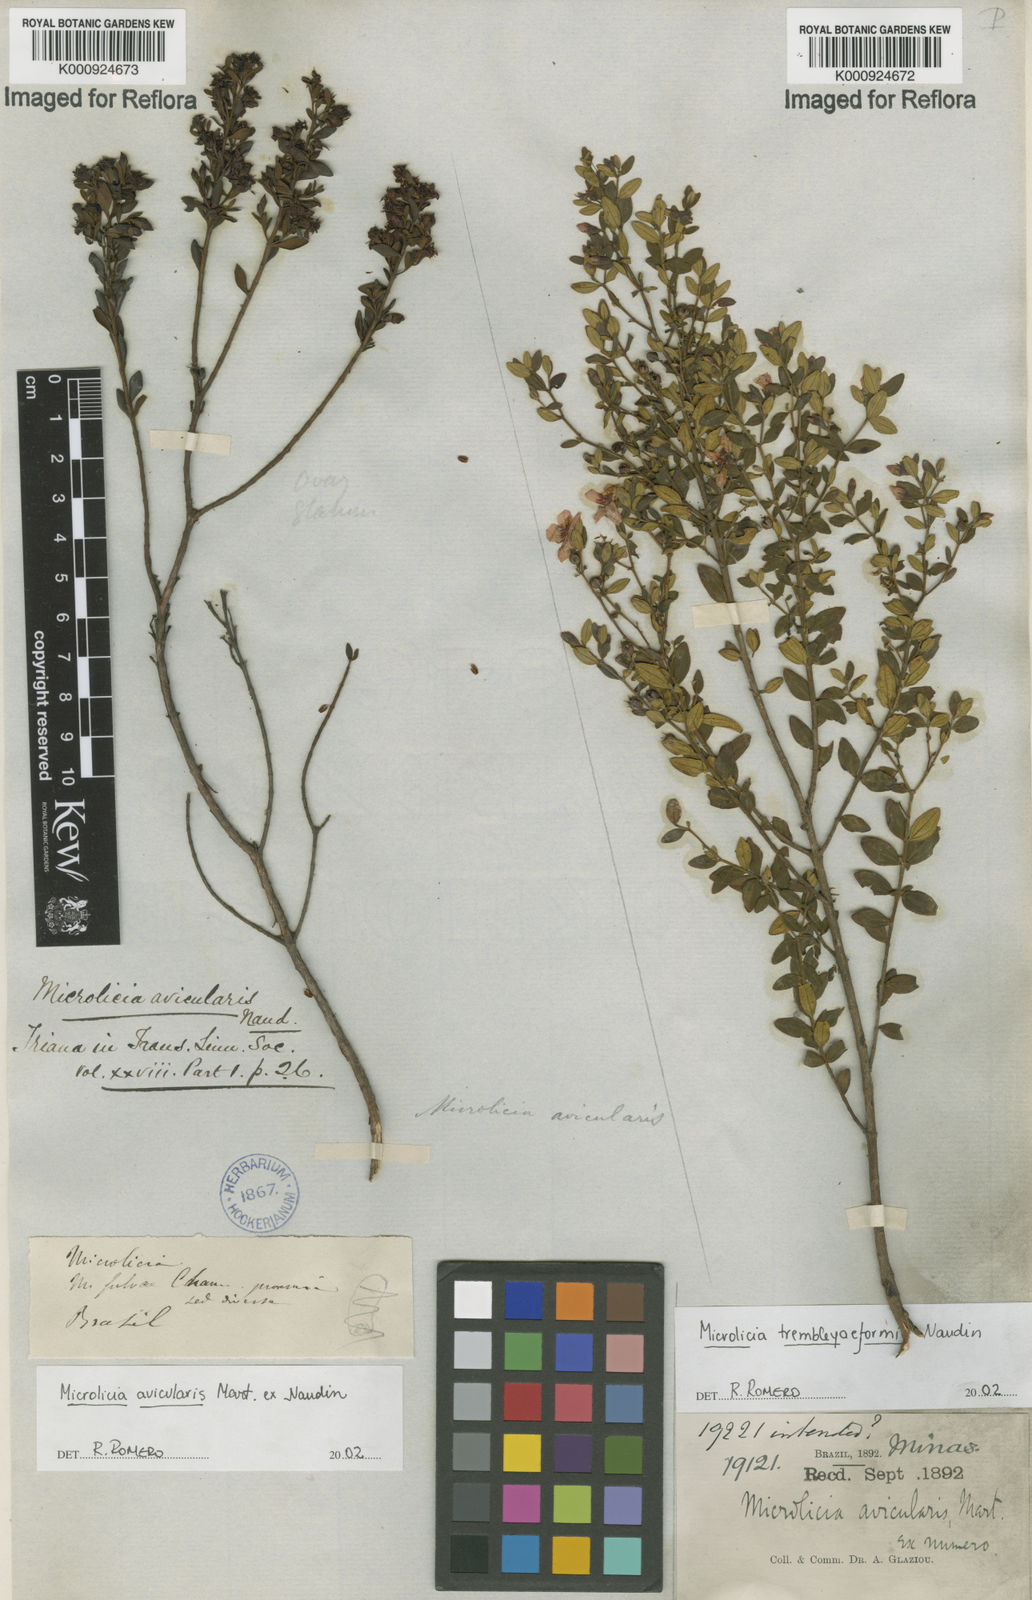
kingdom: Plantae
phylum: Tracheophyta
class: Magnoliopsida
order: Myrtales
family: Melastomataceae
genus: Microlicia
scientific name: Microlicia trembleyaeformis
